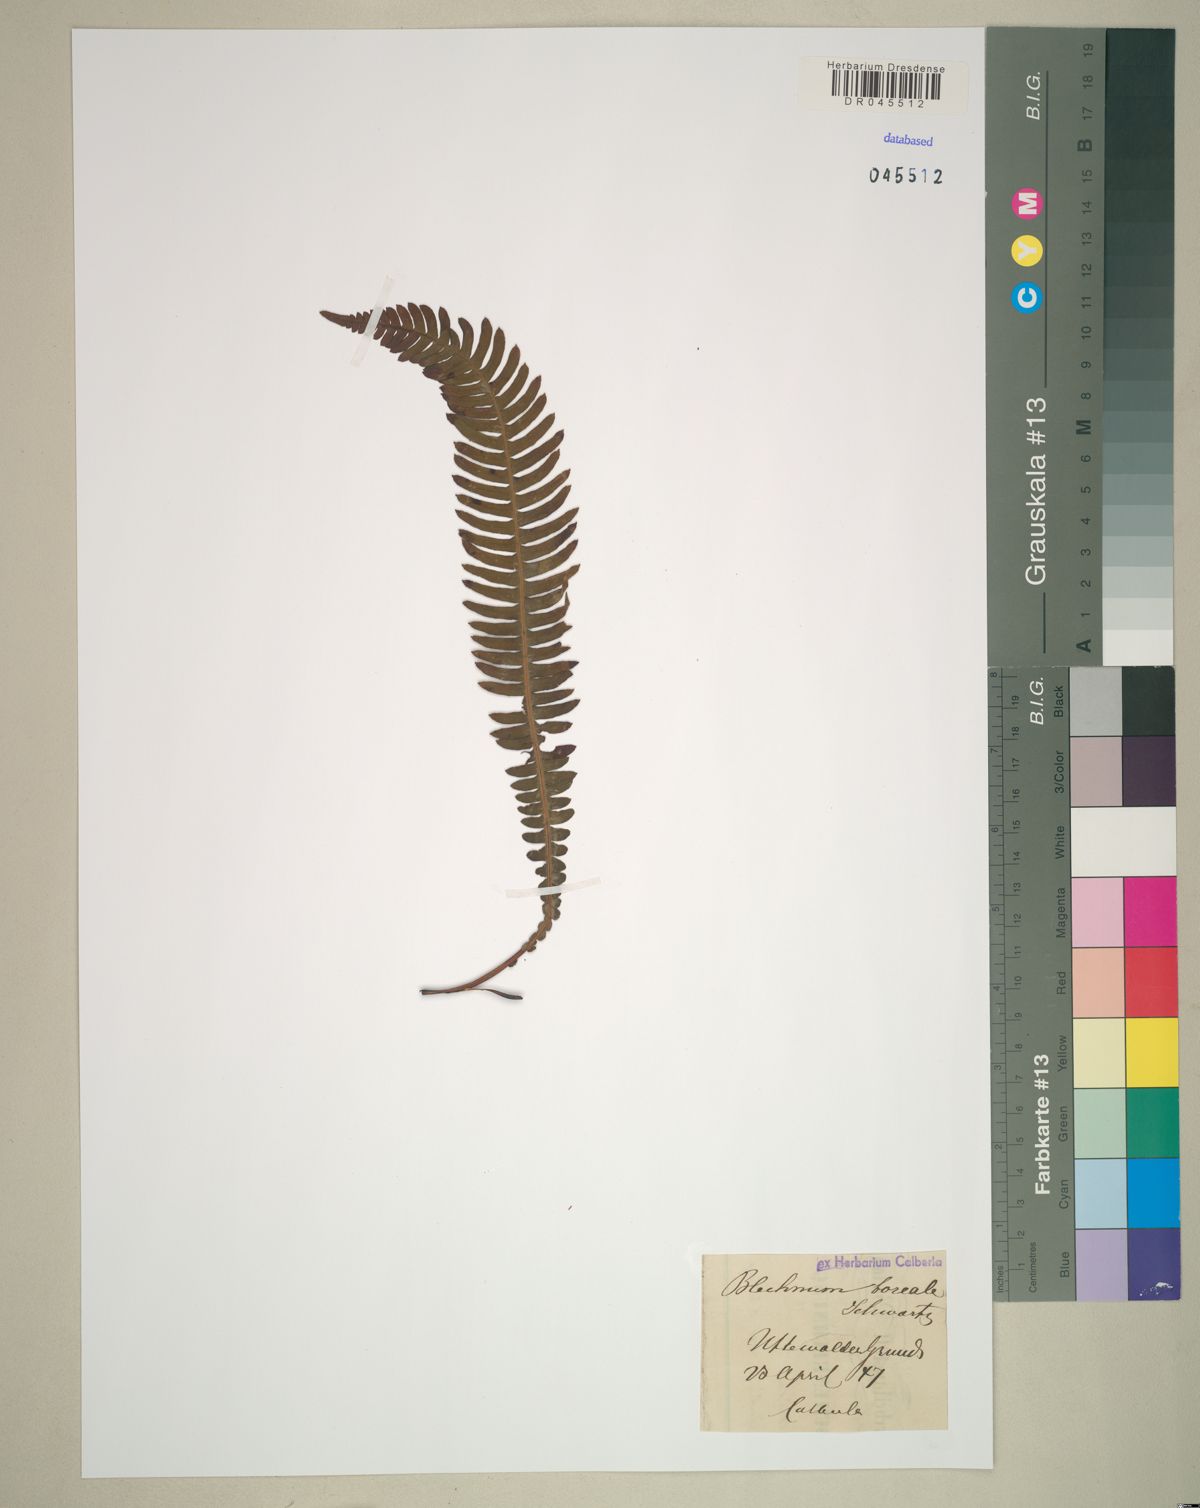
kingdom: Plantae
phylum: Tracheophyta
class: Polypodiopsida
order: Polypodiales
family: Blechnaceae
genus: Struthiopteris
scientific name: Struthiopteris spicant
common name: Deer fern
